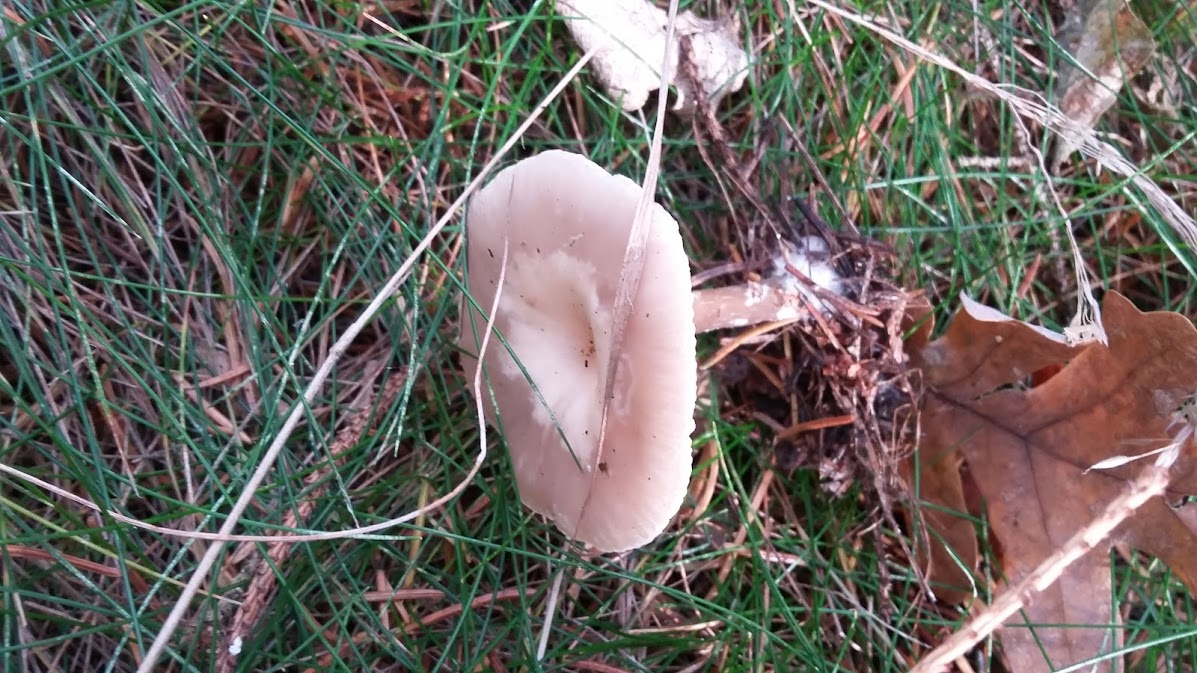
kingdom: Fungi
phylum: Basidiomycota
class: Agaricomycetes
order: Agaricales
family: Tricholomataceae
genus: Clitocybe
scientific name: Clitocybe
